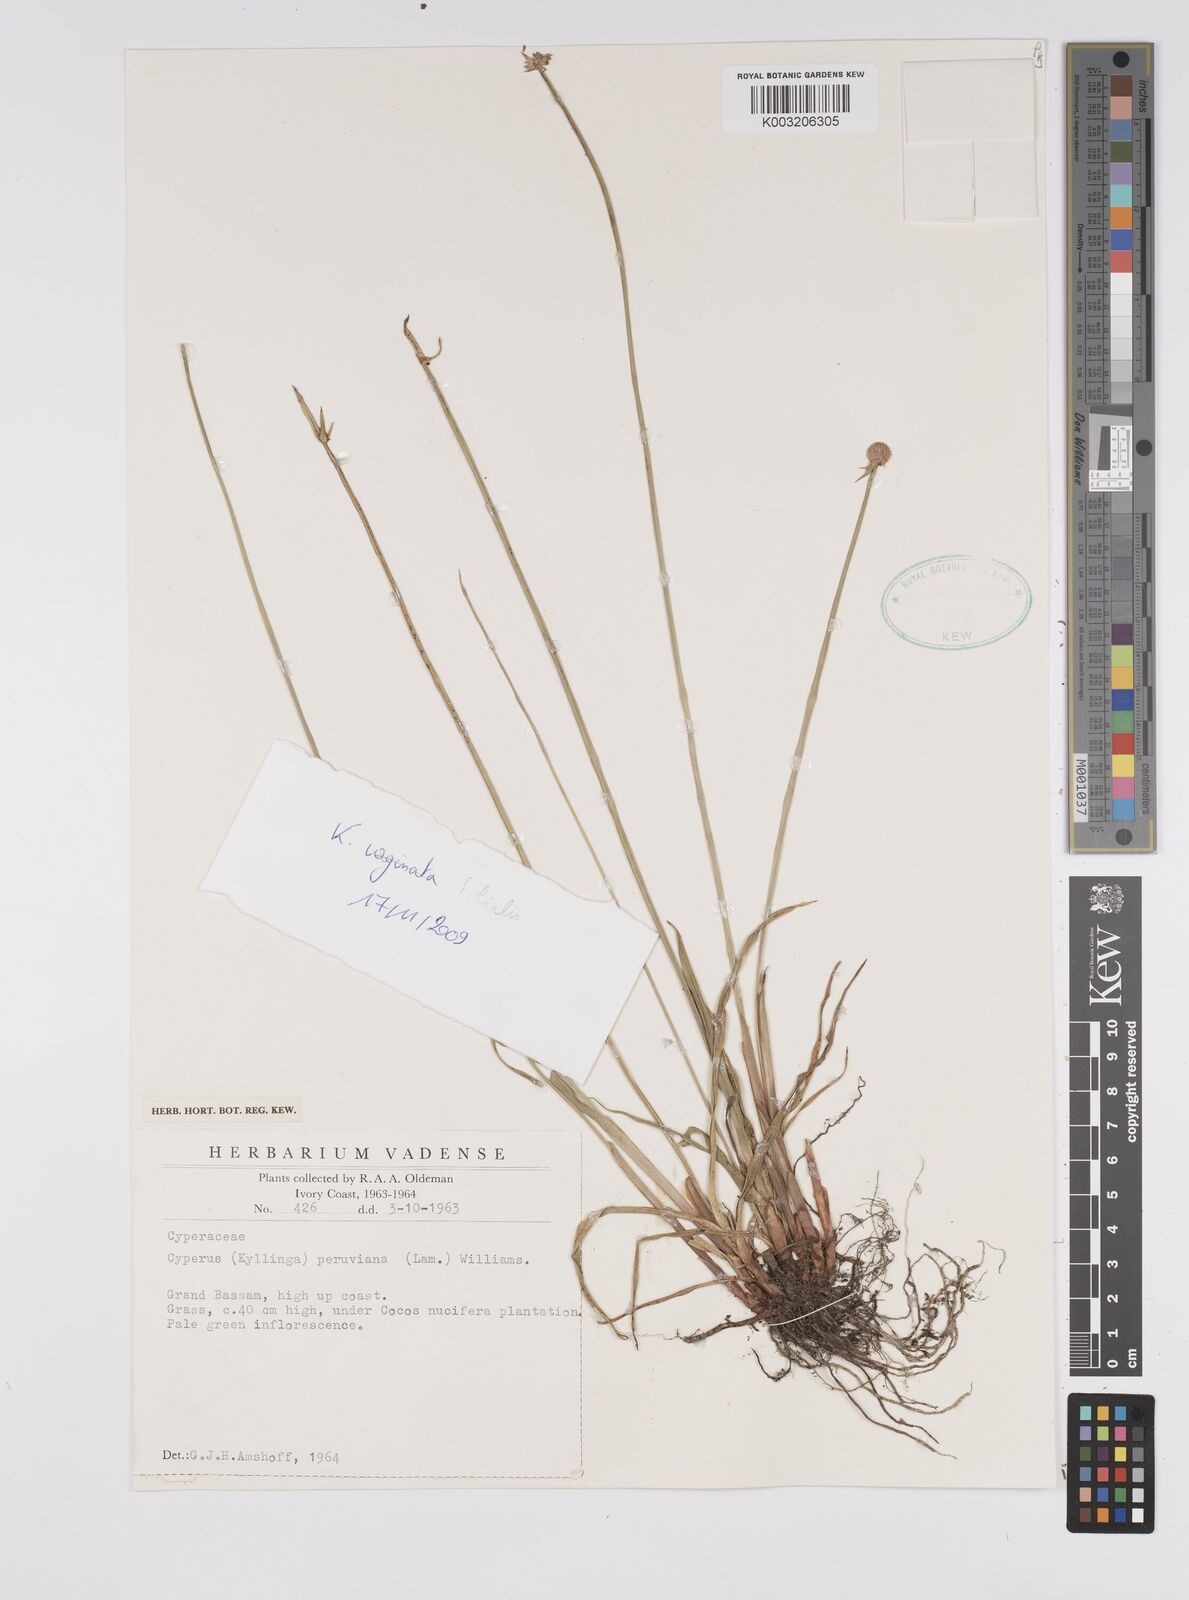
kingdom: Plantae
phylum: Tracheophyta
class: Liliopsida
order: Poales
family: Cyperaceae
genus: Cyperus
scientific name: Cyperus obtusatus
